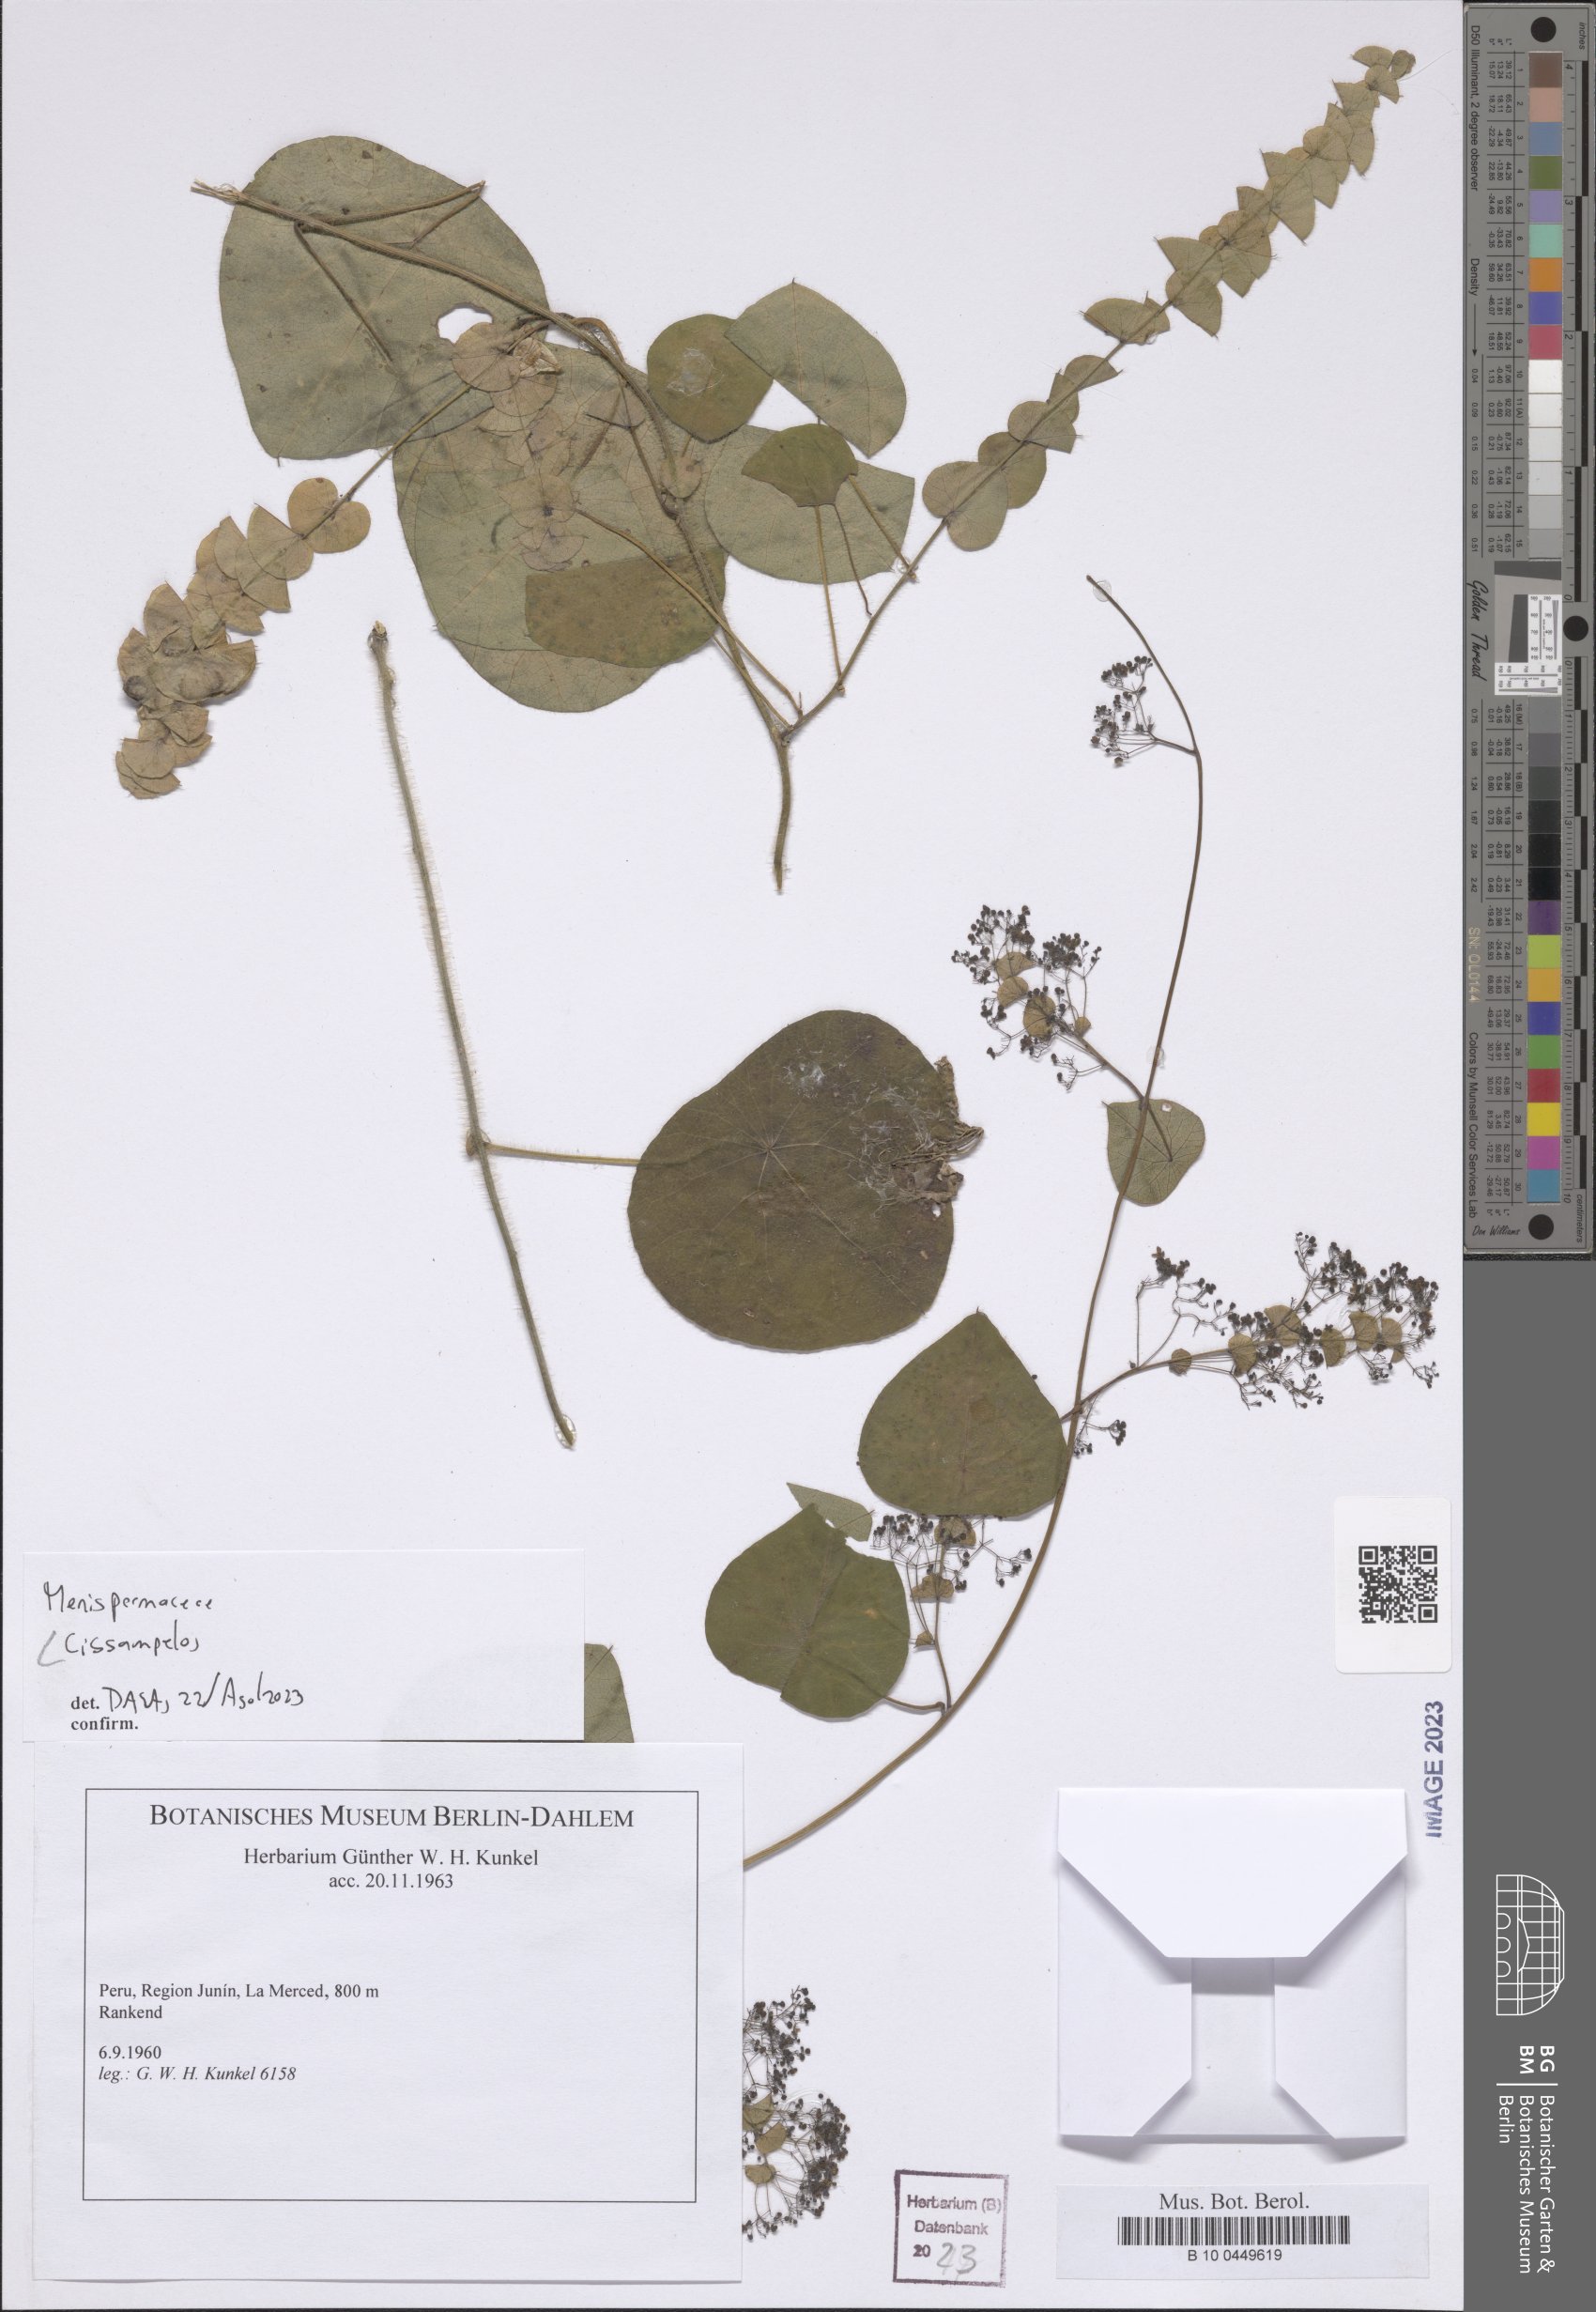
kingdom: Plantae
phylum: Tracheophyta
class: Magnoliopsida
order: Ranunculales
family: Menispermaceae
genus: Cissampelos
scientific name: Cissampelos
